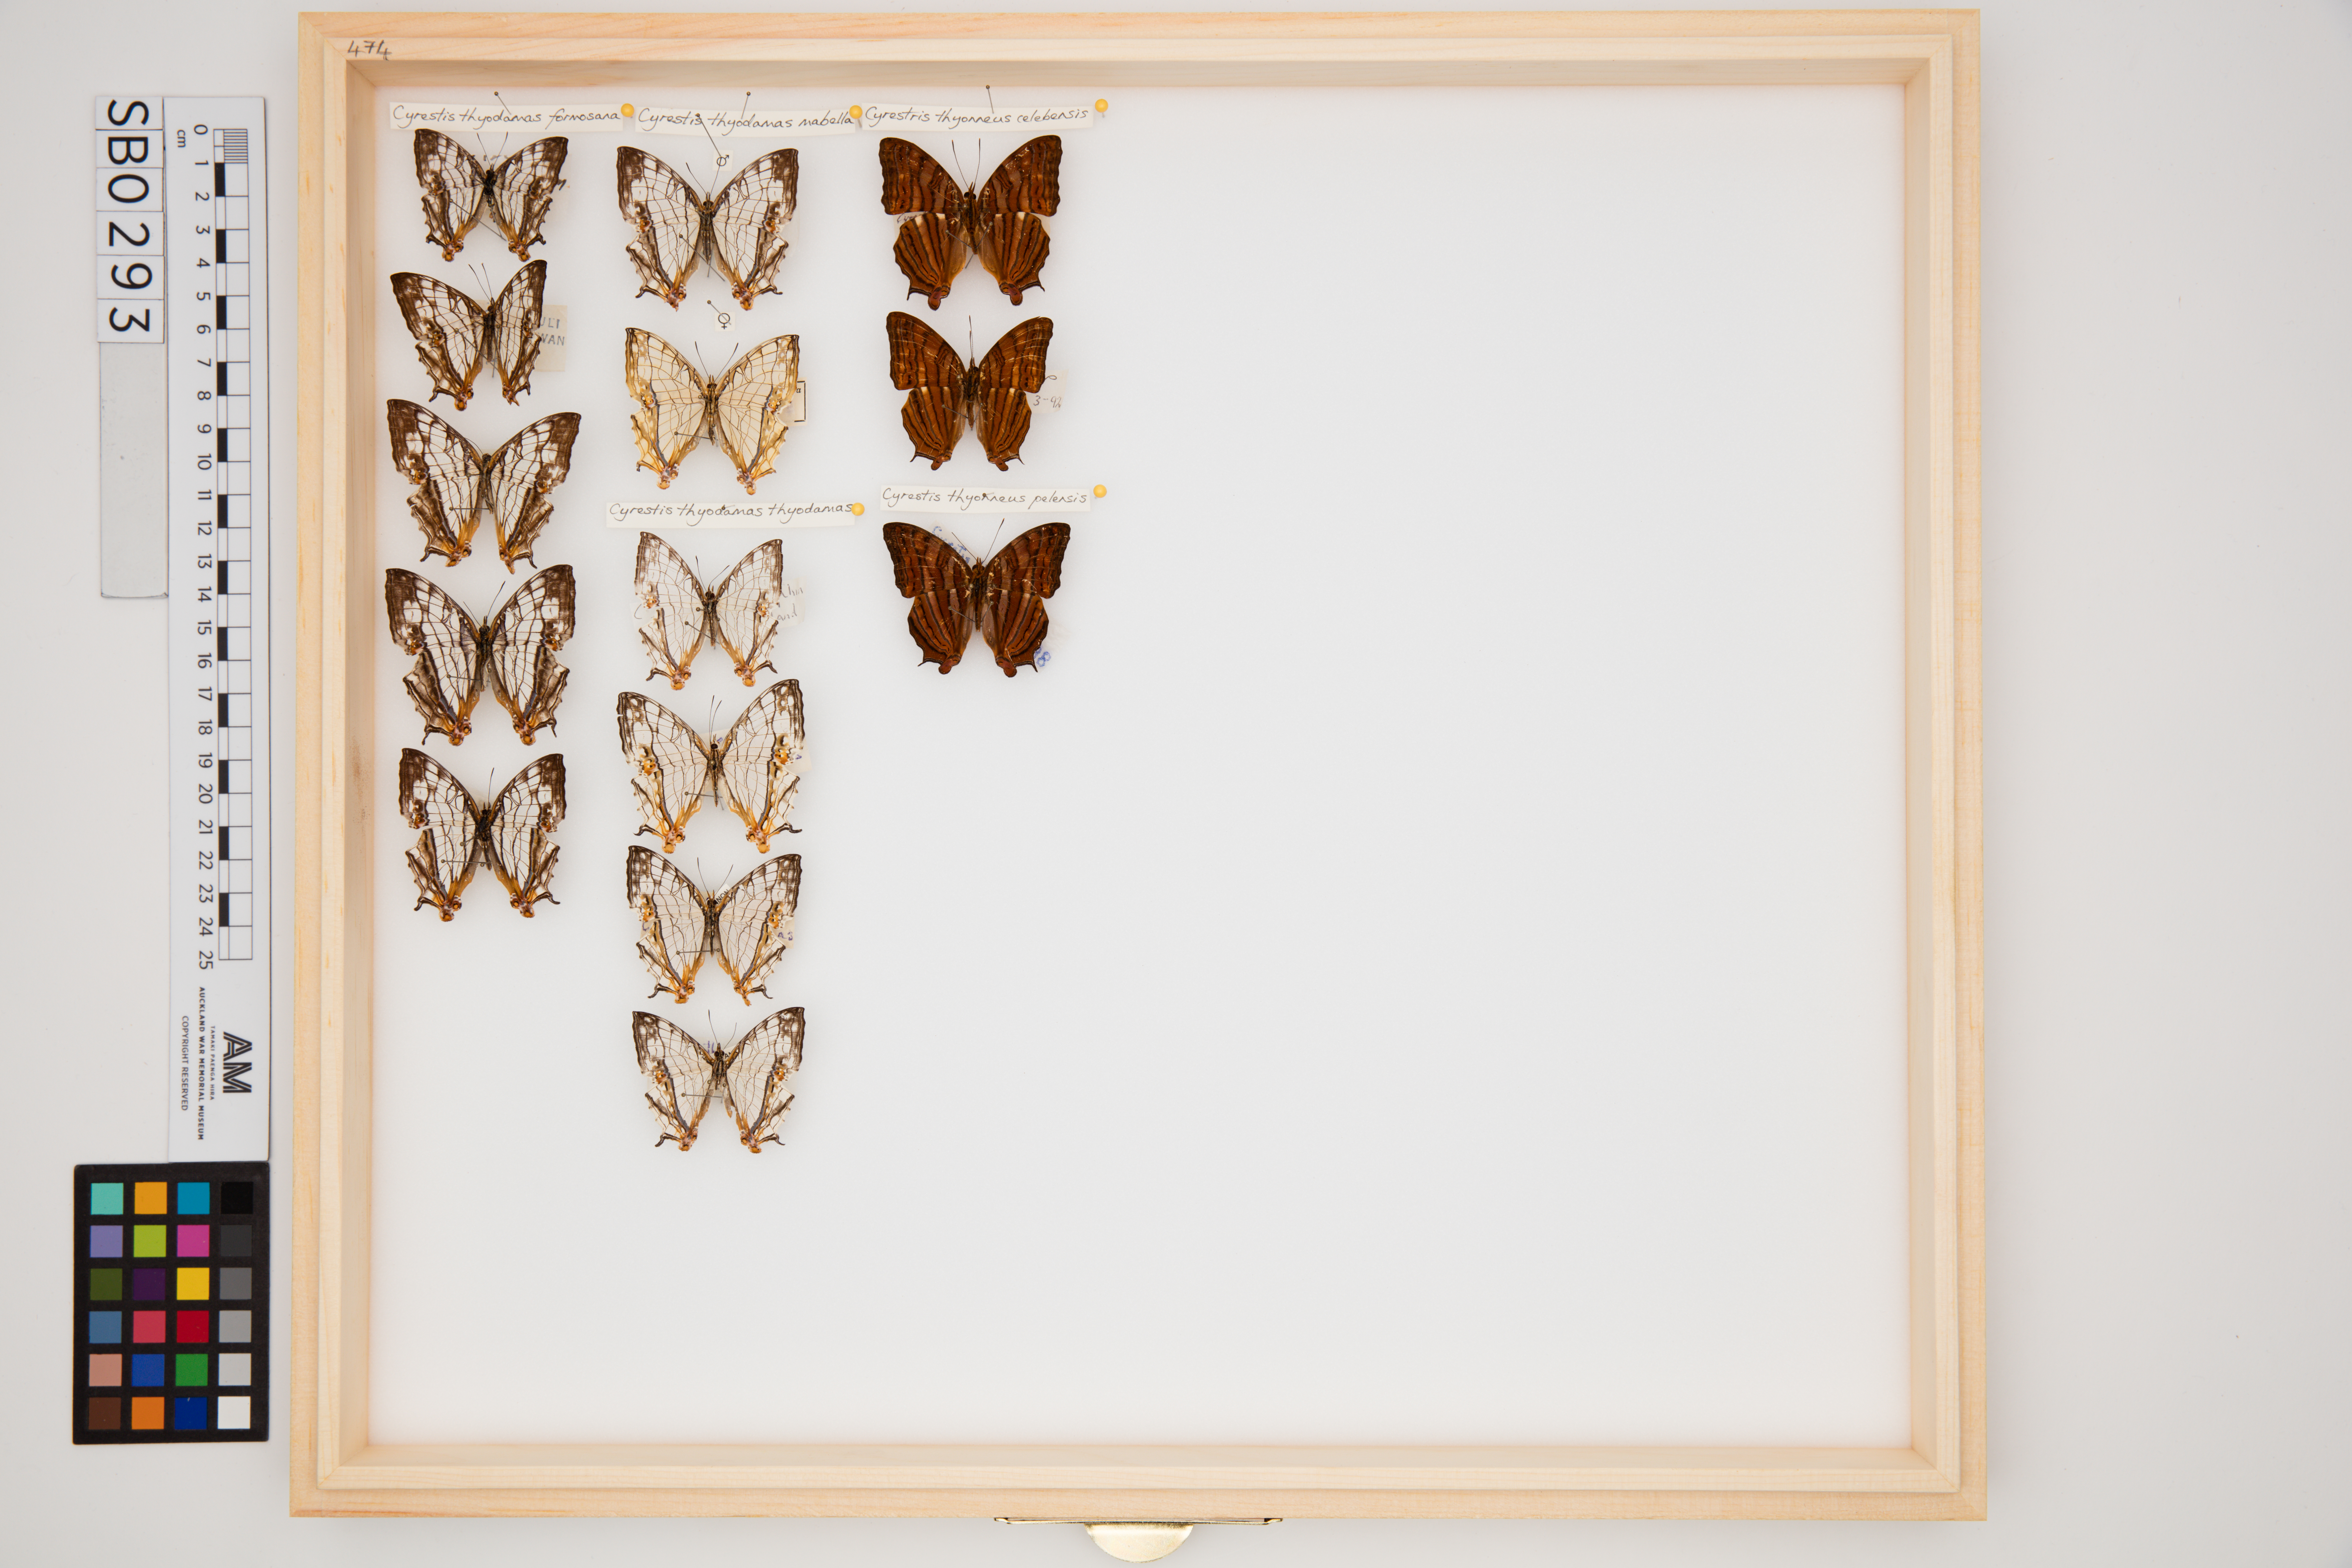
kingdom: Animalia
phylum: Arthropoda
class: Insecta
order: Lepidoptera
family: Nymphalidae
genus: Cyrestis
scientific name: Cyrestis thyodamas
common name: Common mapwing
